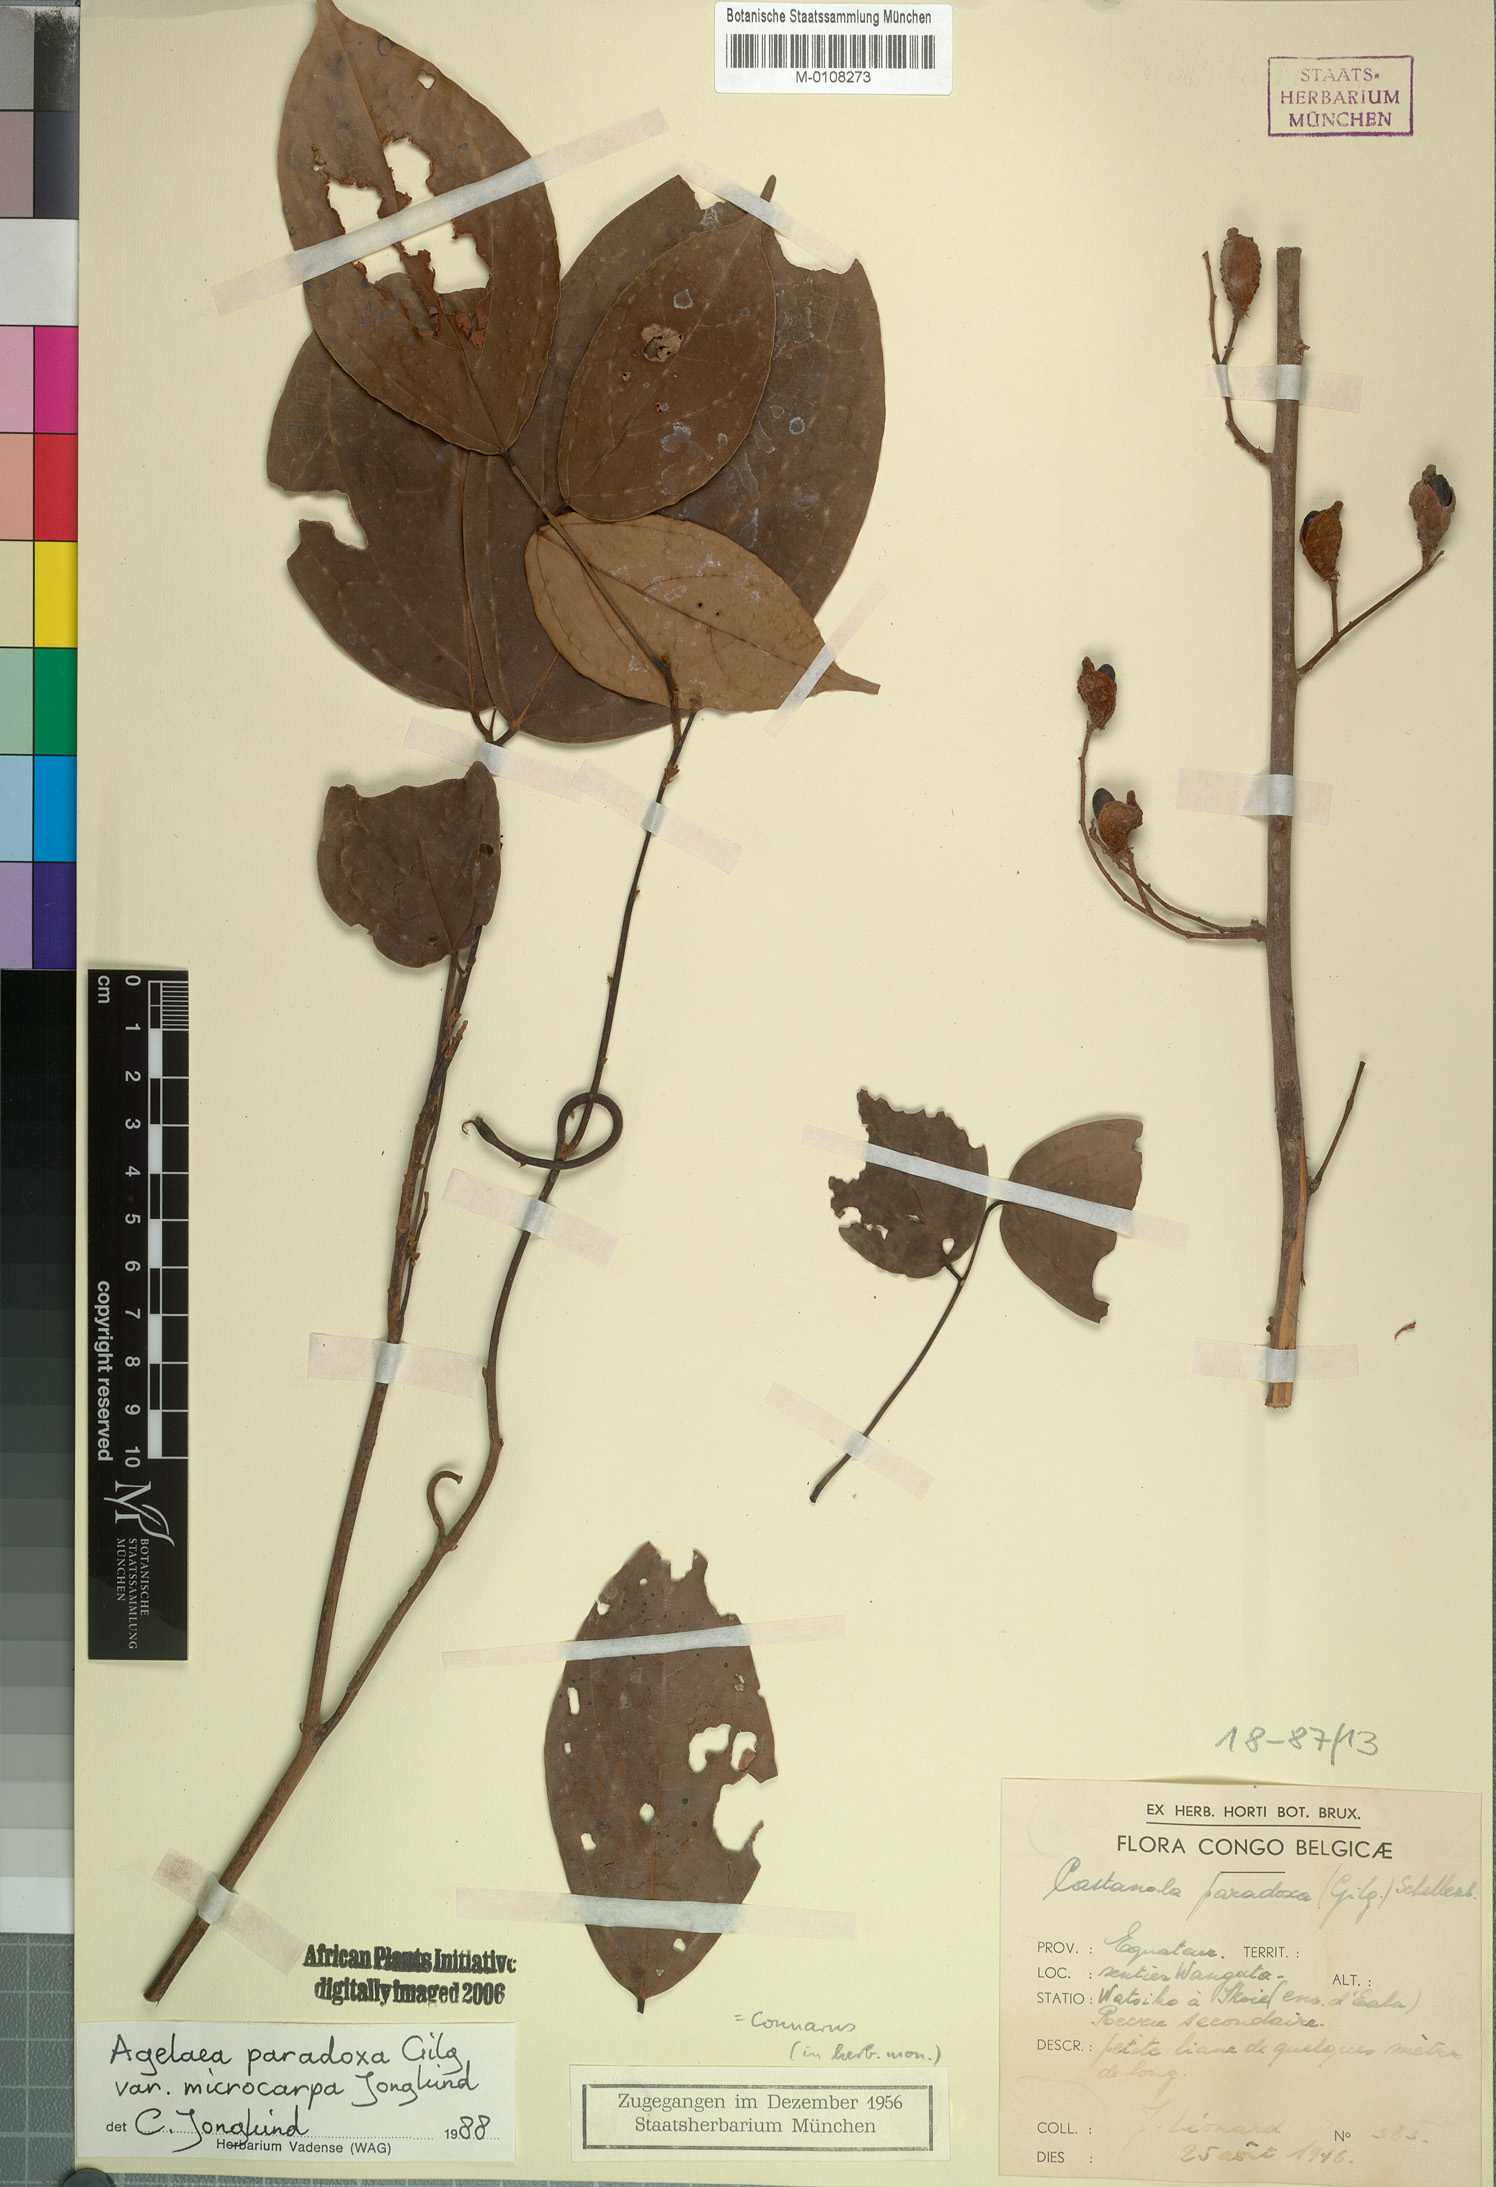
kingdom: Plantae
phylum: Tracheophyta
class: Magnoliopsida
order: Oxalidales
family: Connaraceae
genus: Castanola
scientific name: Castanola paradoxa
